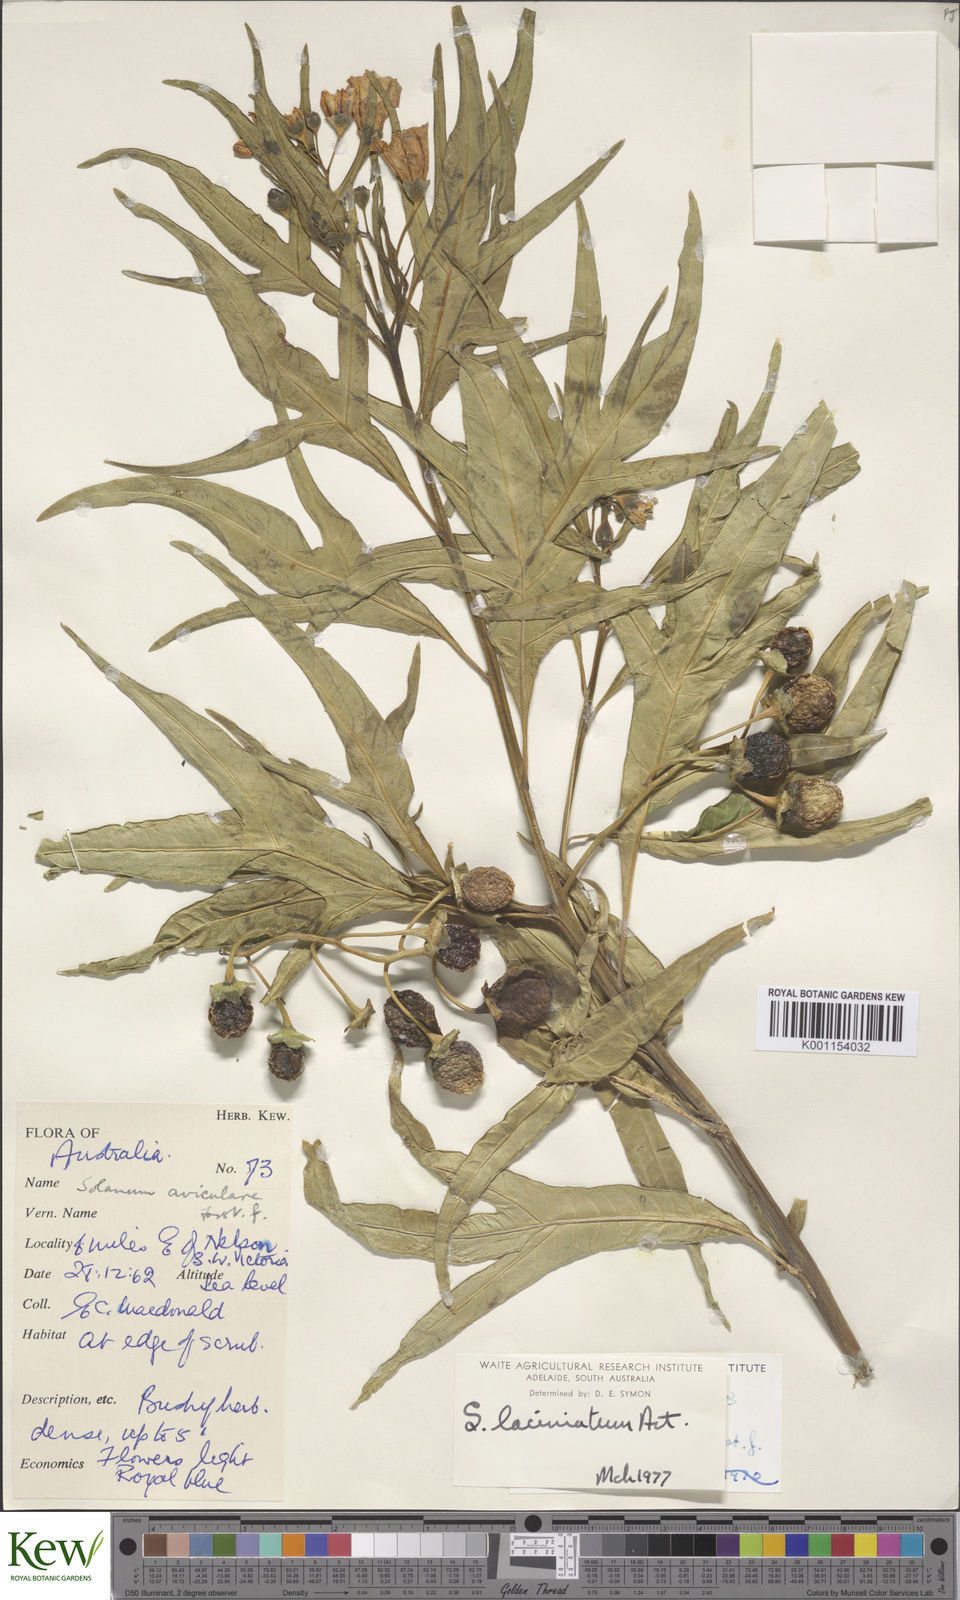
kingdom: Plantae
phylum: Tracheophyta
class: Magnoliopsida
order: Solanales
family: Solanaceae
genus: Solanum
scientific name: Solanum laciniatum
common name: Kangaroo-apple
